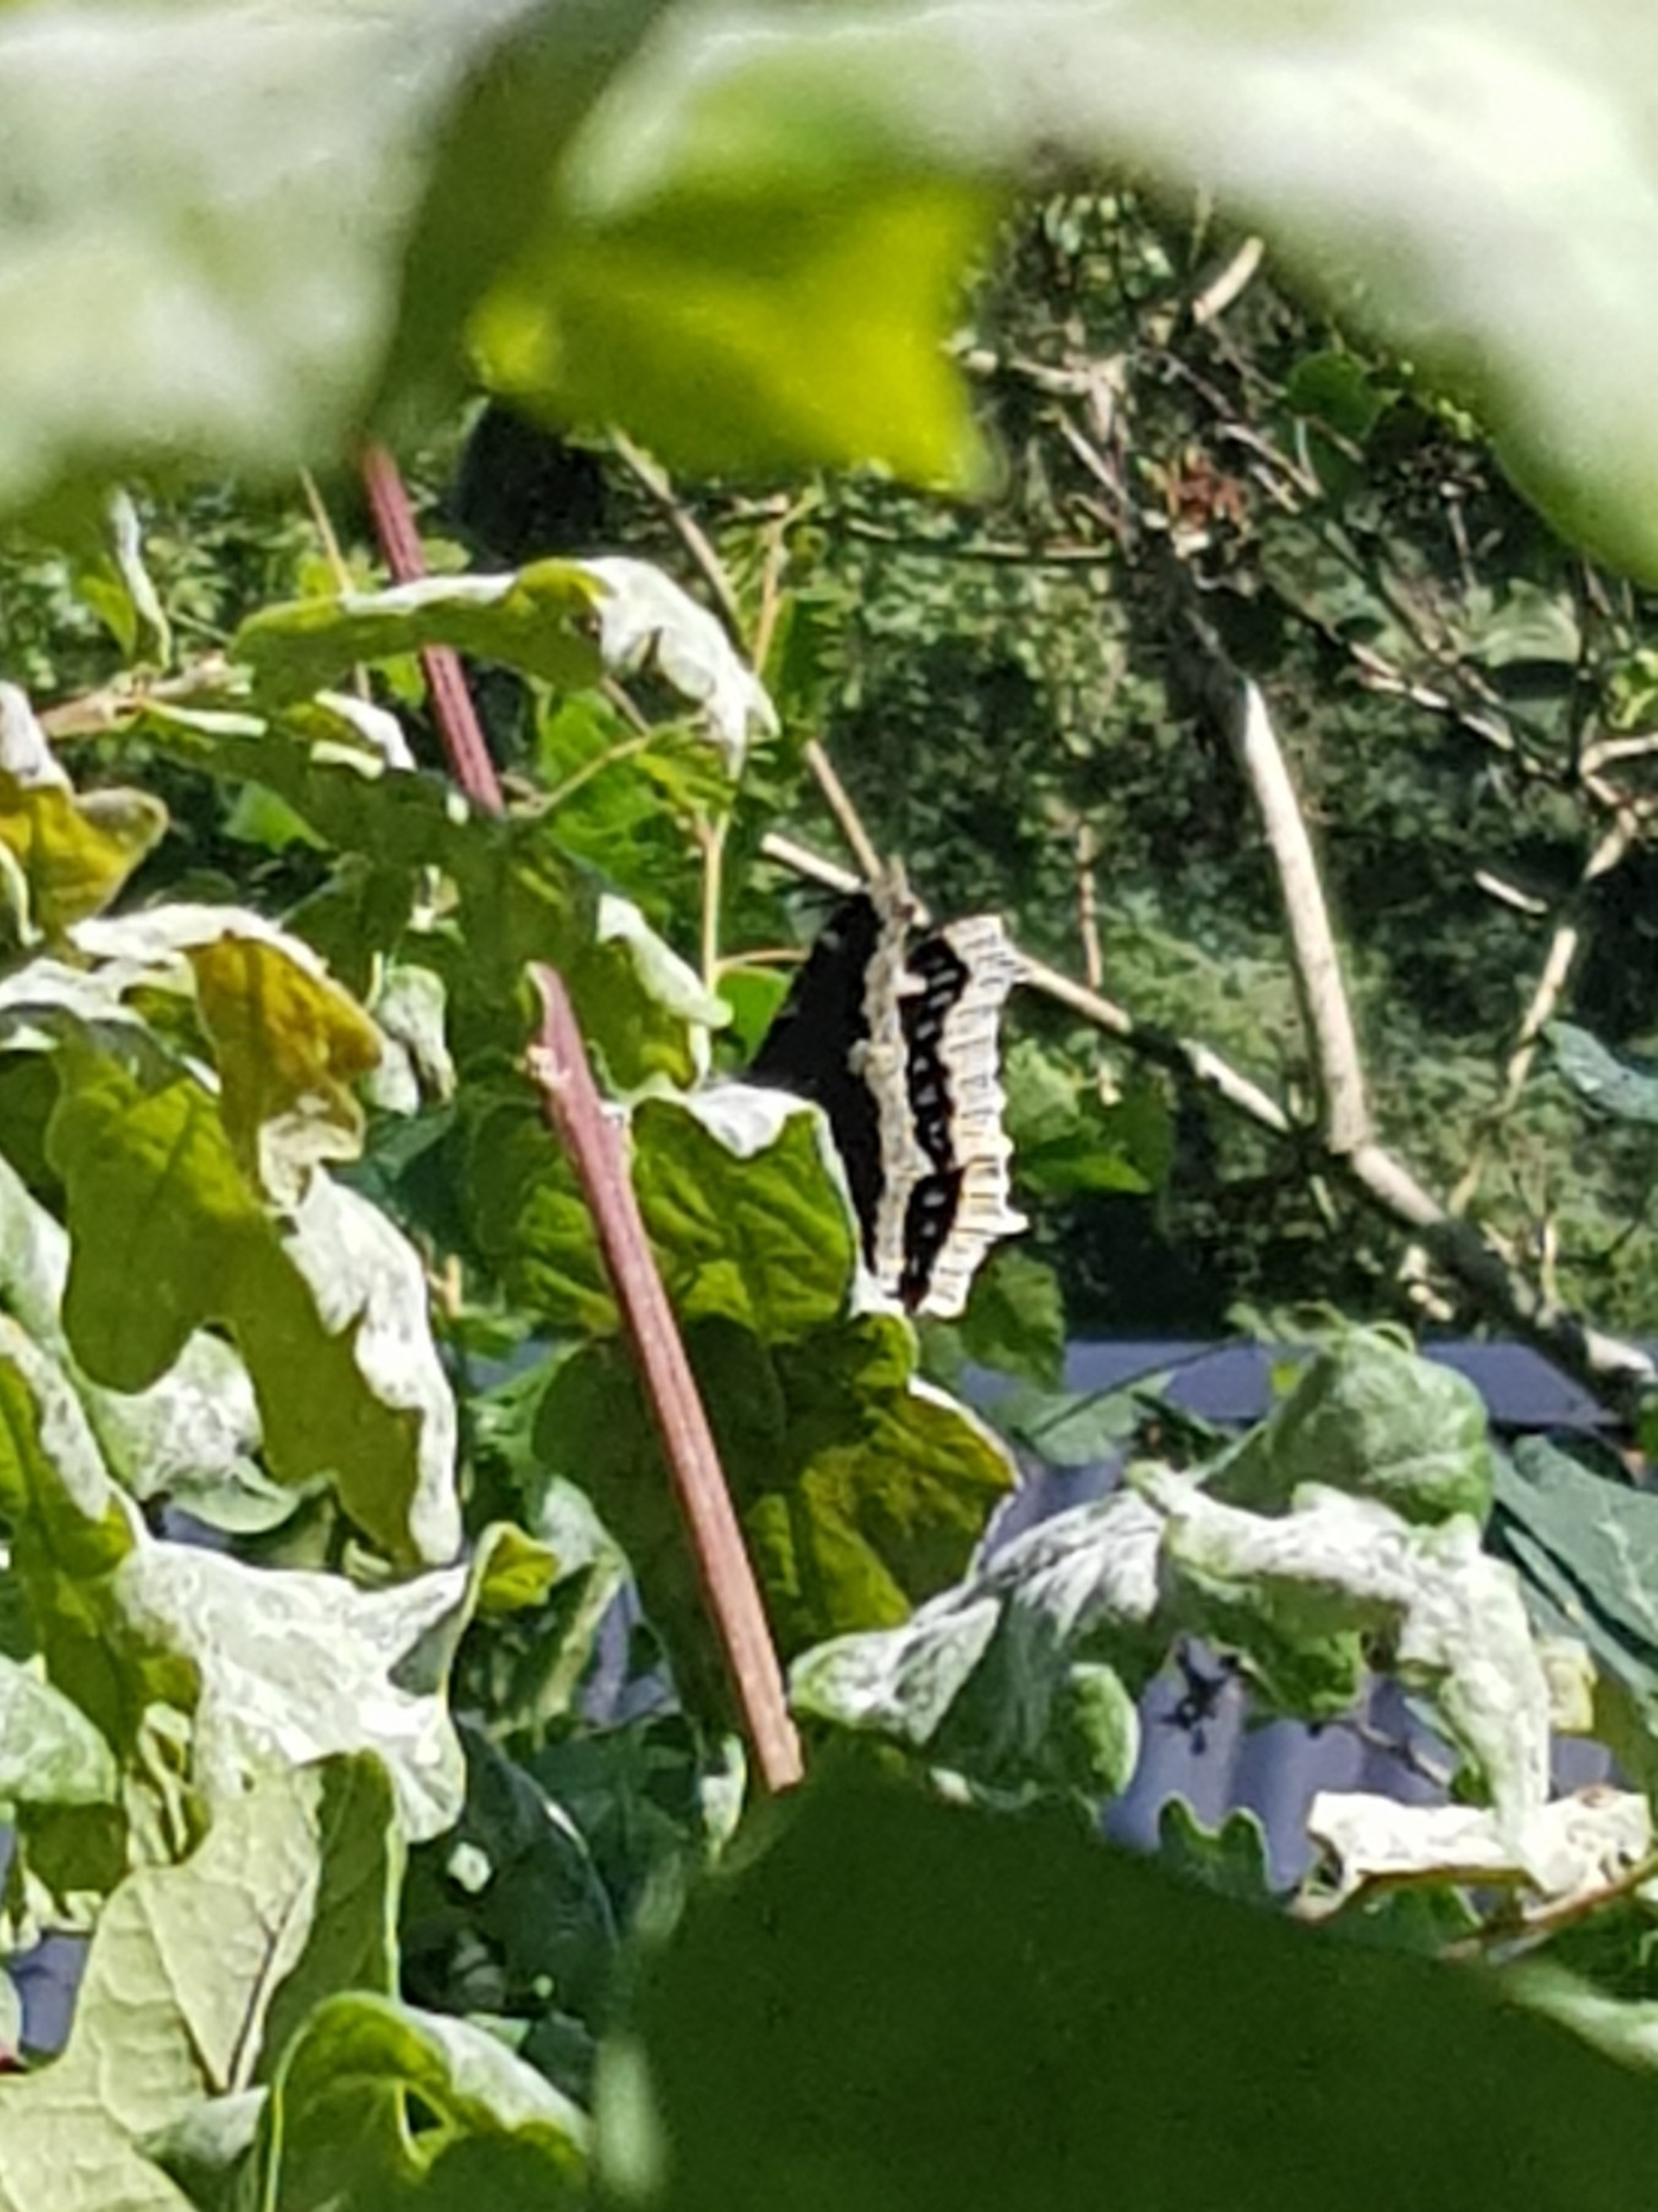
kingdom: Animalia
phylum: Arthropoda
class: Insecta
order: Lepidoptera
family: Nymphalidae
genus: Nymphalis
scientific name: Nymphalis antiopa
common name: Sørgekåbe
